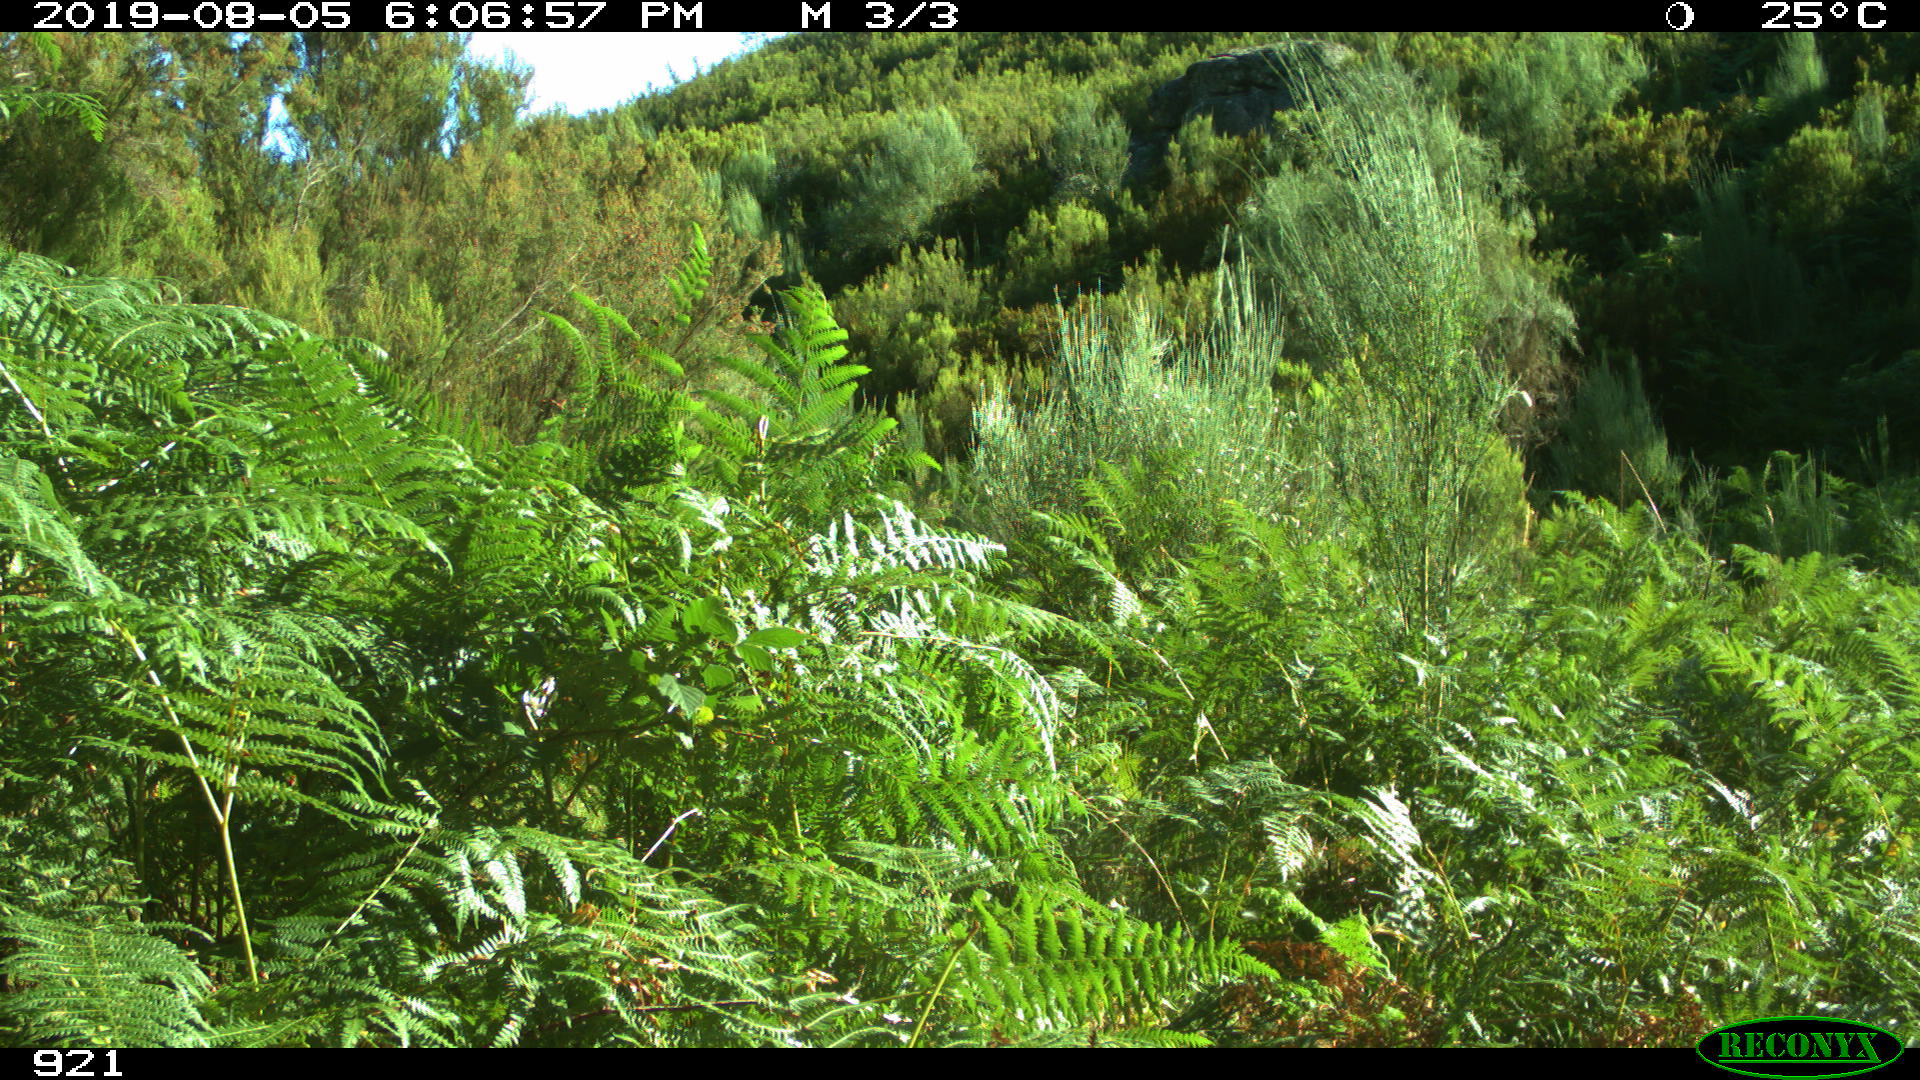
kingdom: Animalia
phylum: Chordata
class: Mammalia
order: Perissodactyla
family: Equidae
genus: Equus
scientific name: Equus caballus
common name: Horse
